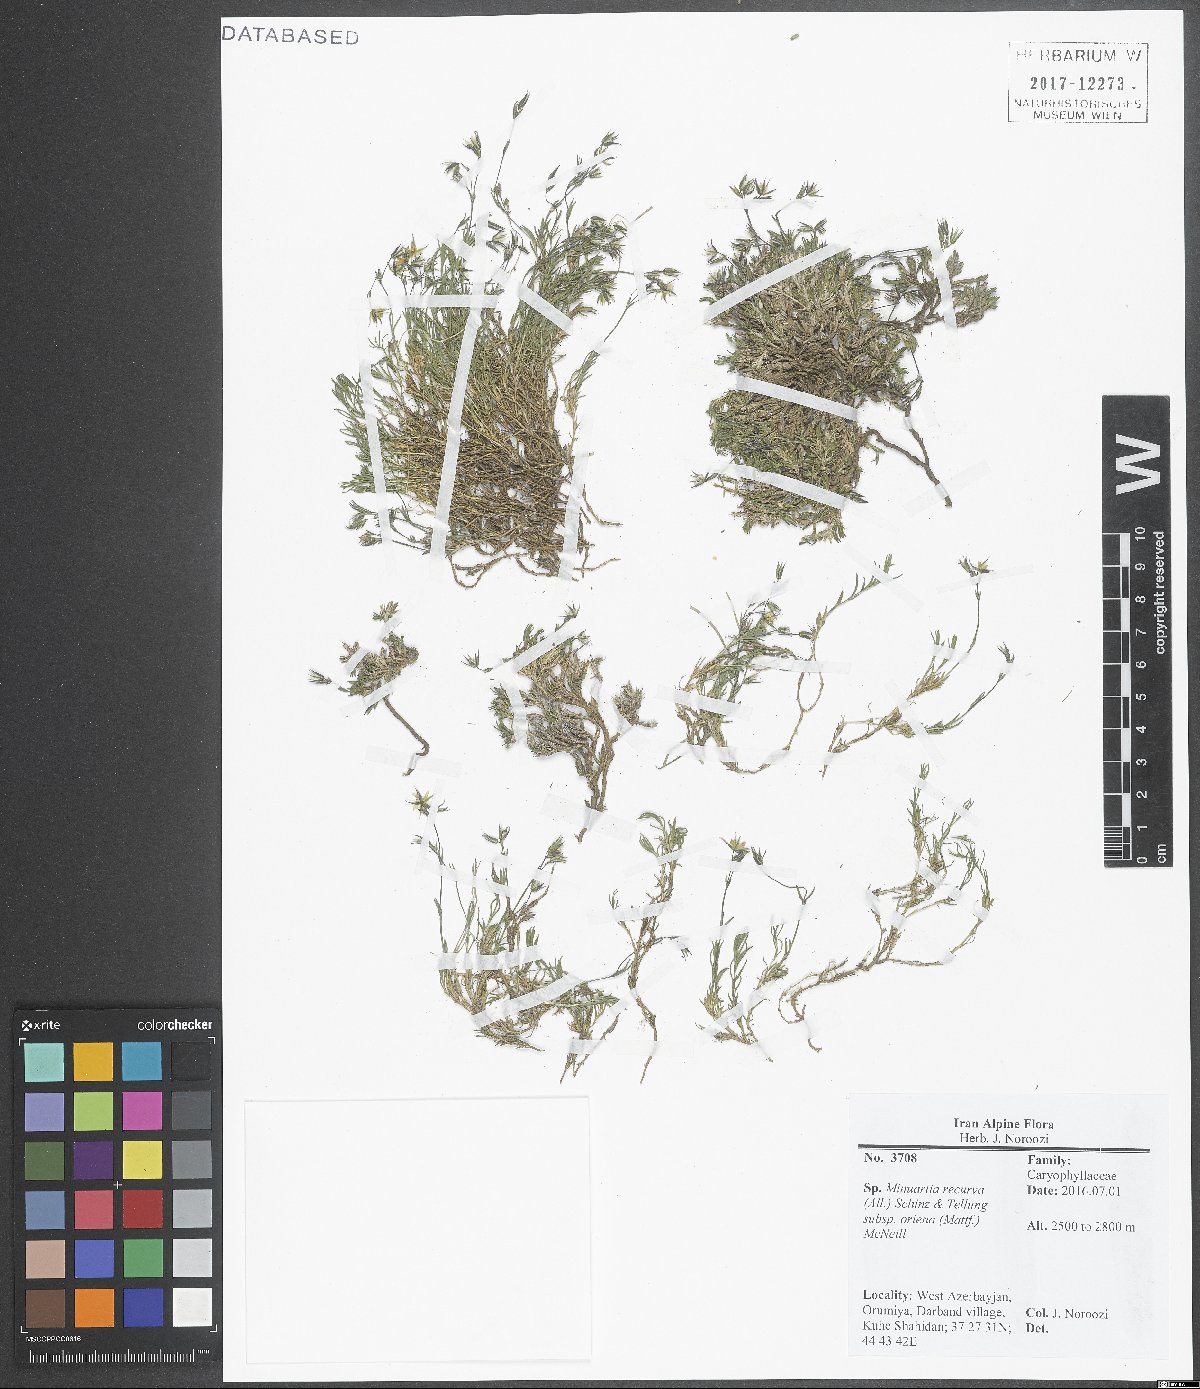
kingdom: Plantae
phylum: Tracheophyta
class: Magnoliopsida
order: Caryophyllales
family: Caryophyllaceae
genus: Minuartia
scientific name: Minuartia hirsuta
